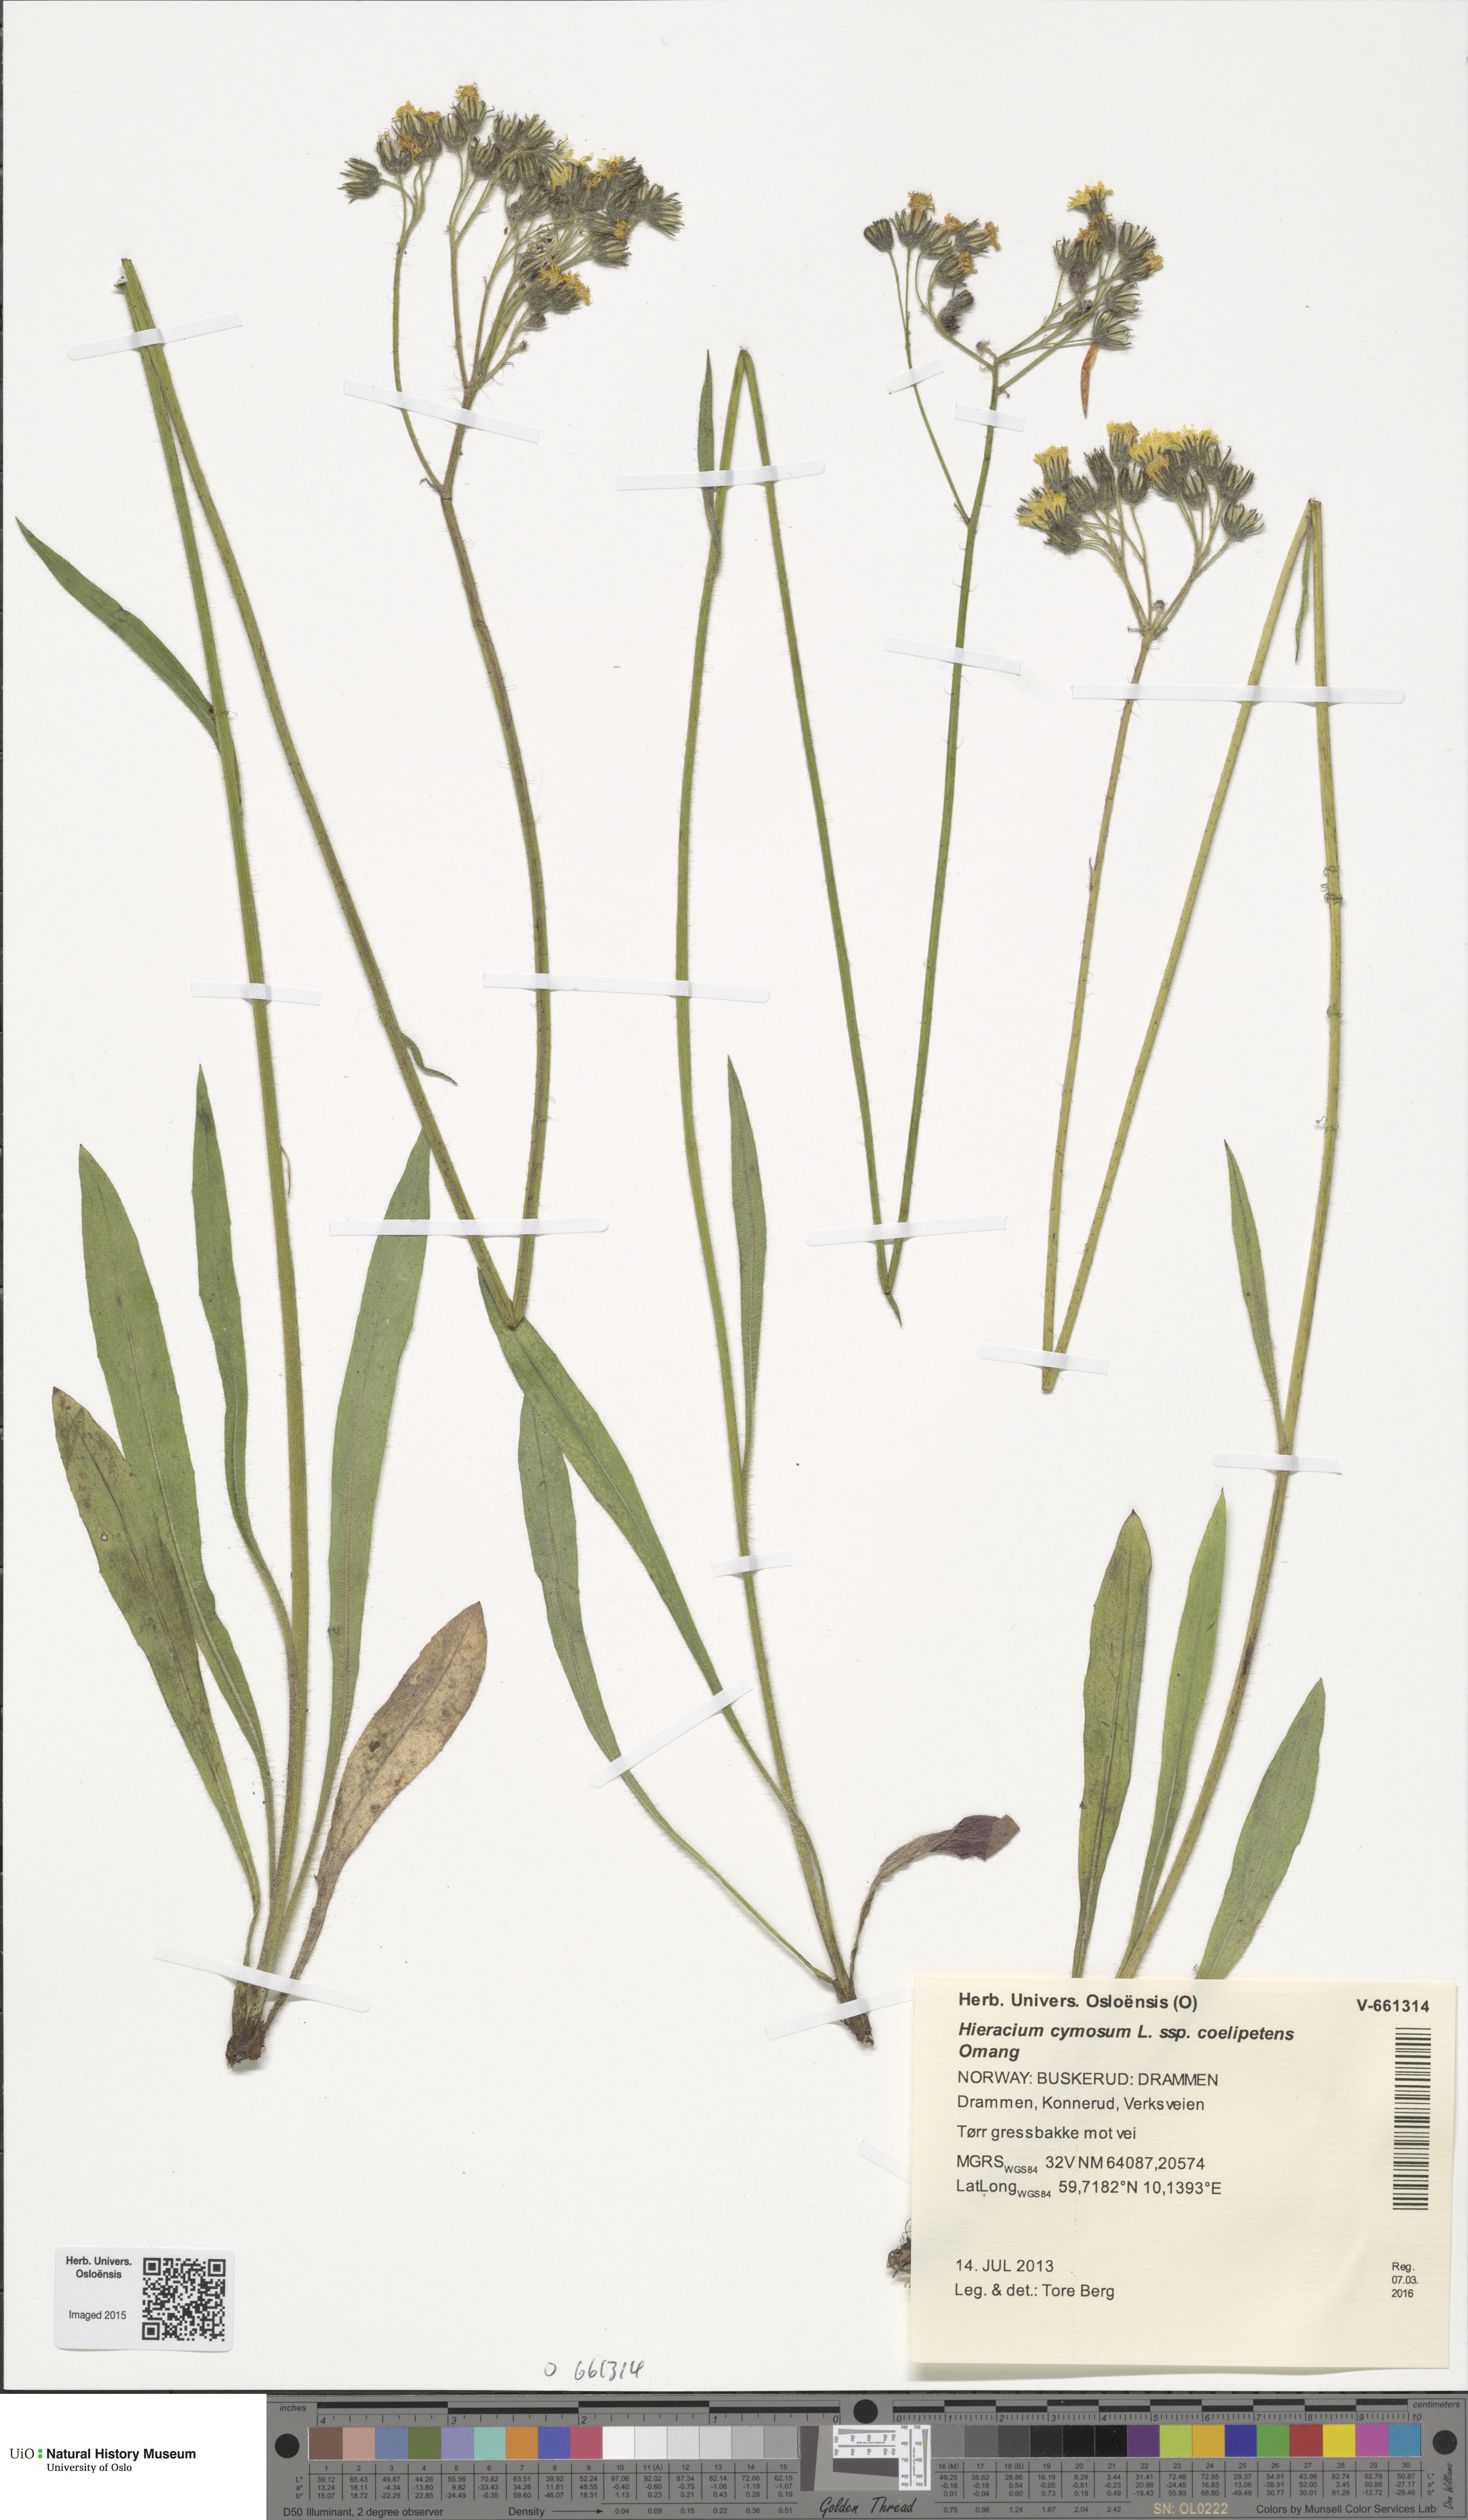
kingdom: Plantae
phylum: Tracheophyta
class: Magnoliopsida
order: Asterales
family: Asteraceae
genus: Pilosella
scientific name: Pilosella cymosa
